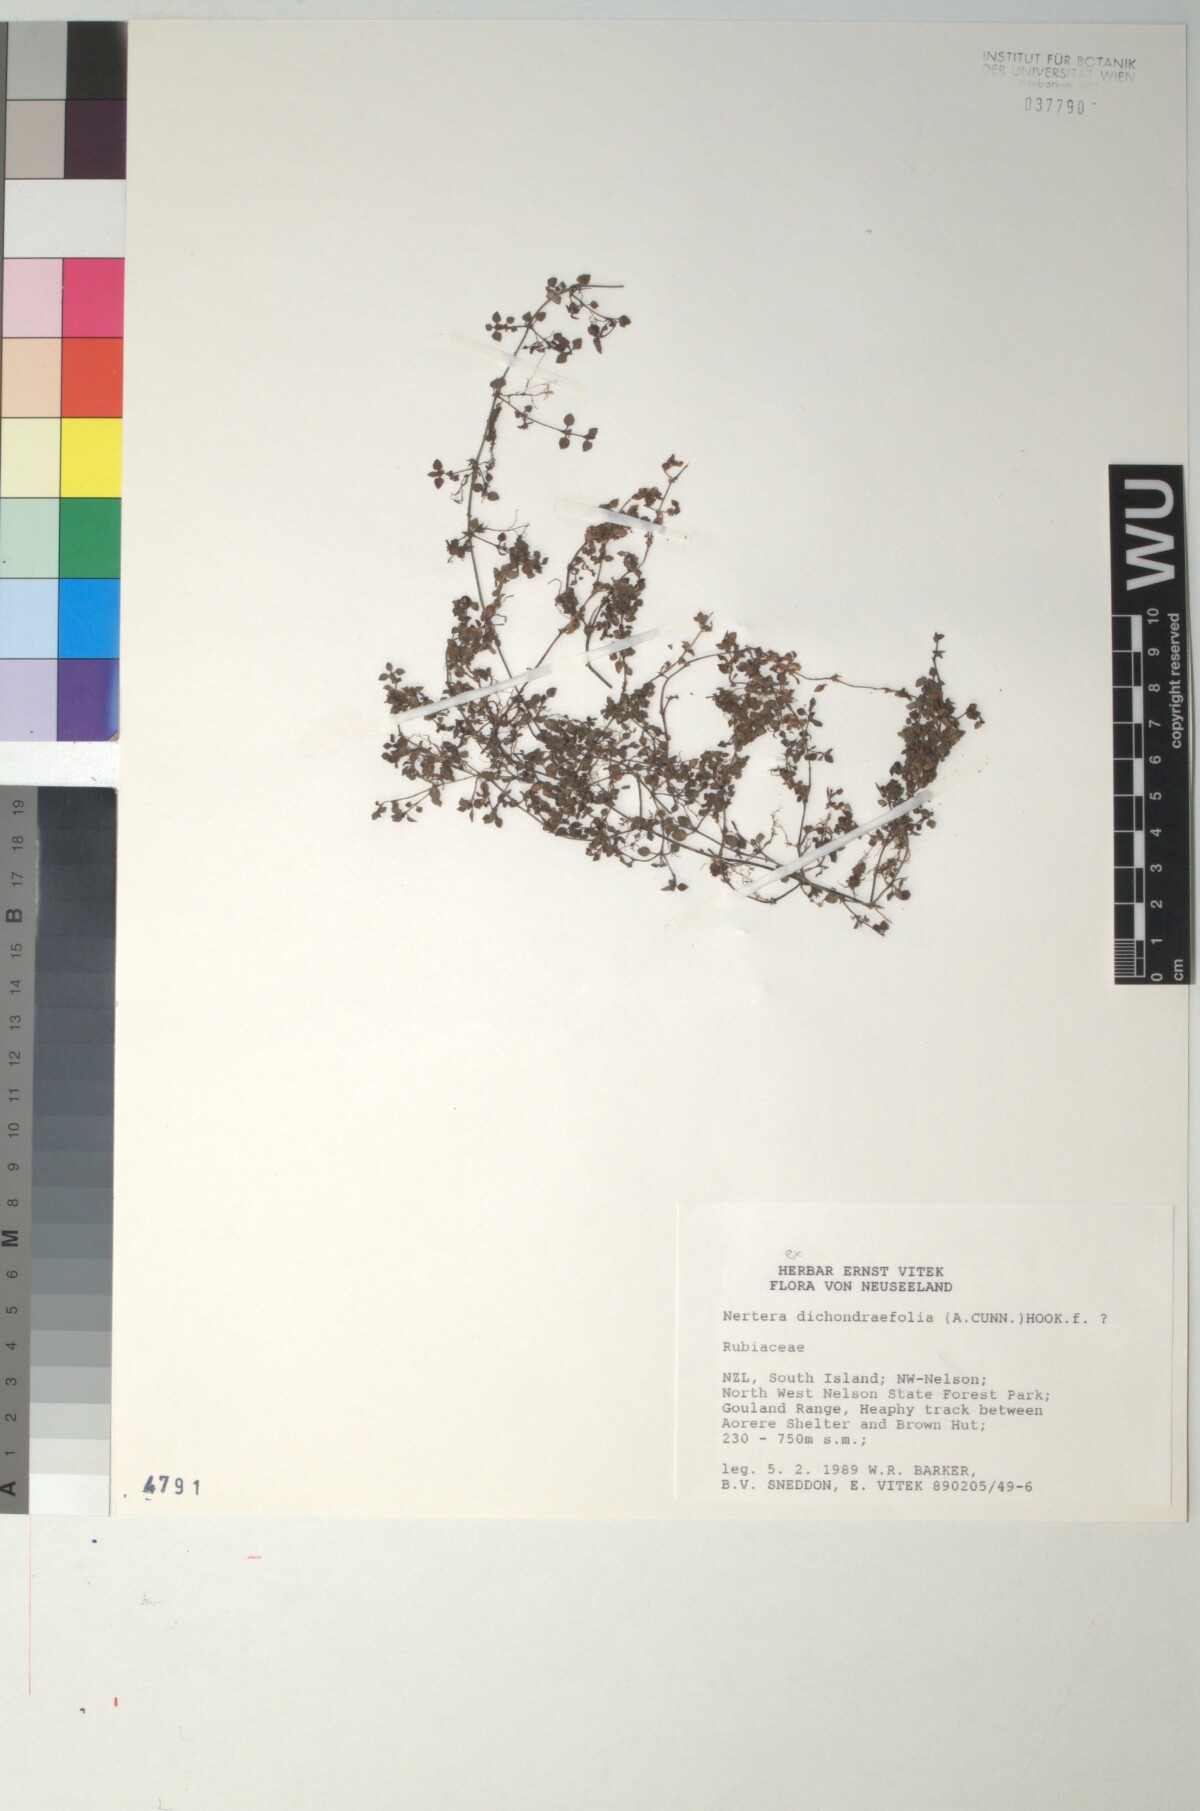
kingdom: Plantae
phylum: Tracheophyta
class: Magnoliopsida
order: Gentianales
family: Rubiaceae
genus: Nertera
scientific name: Nertera dichondrifolia
